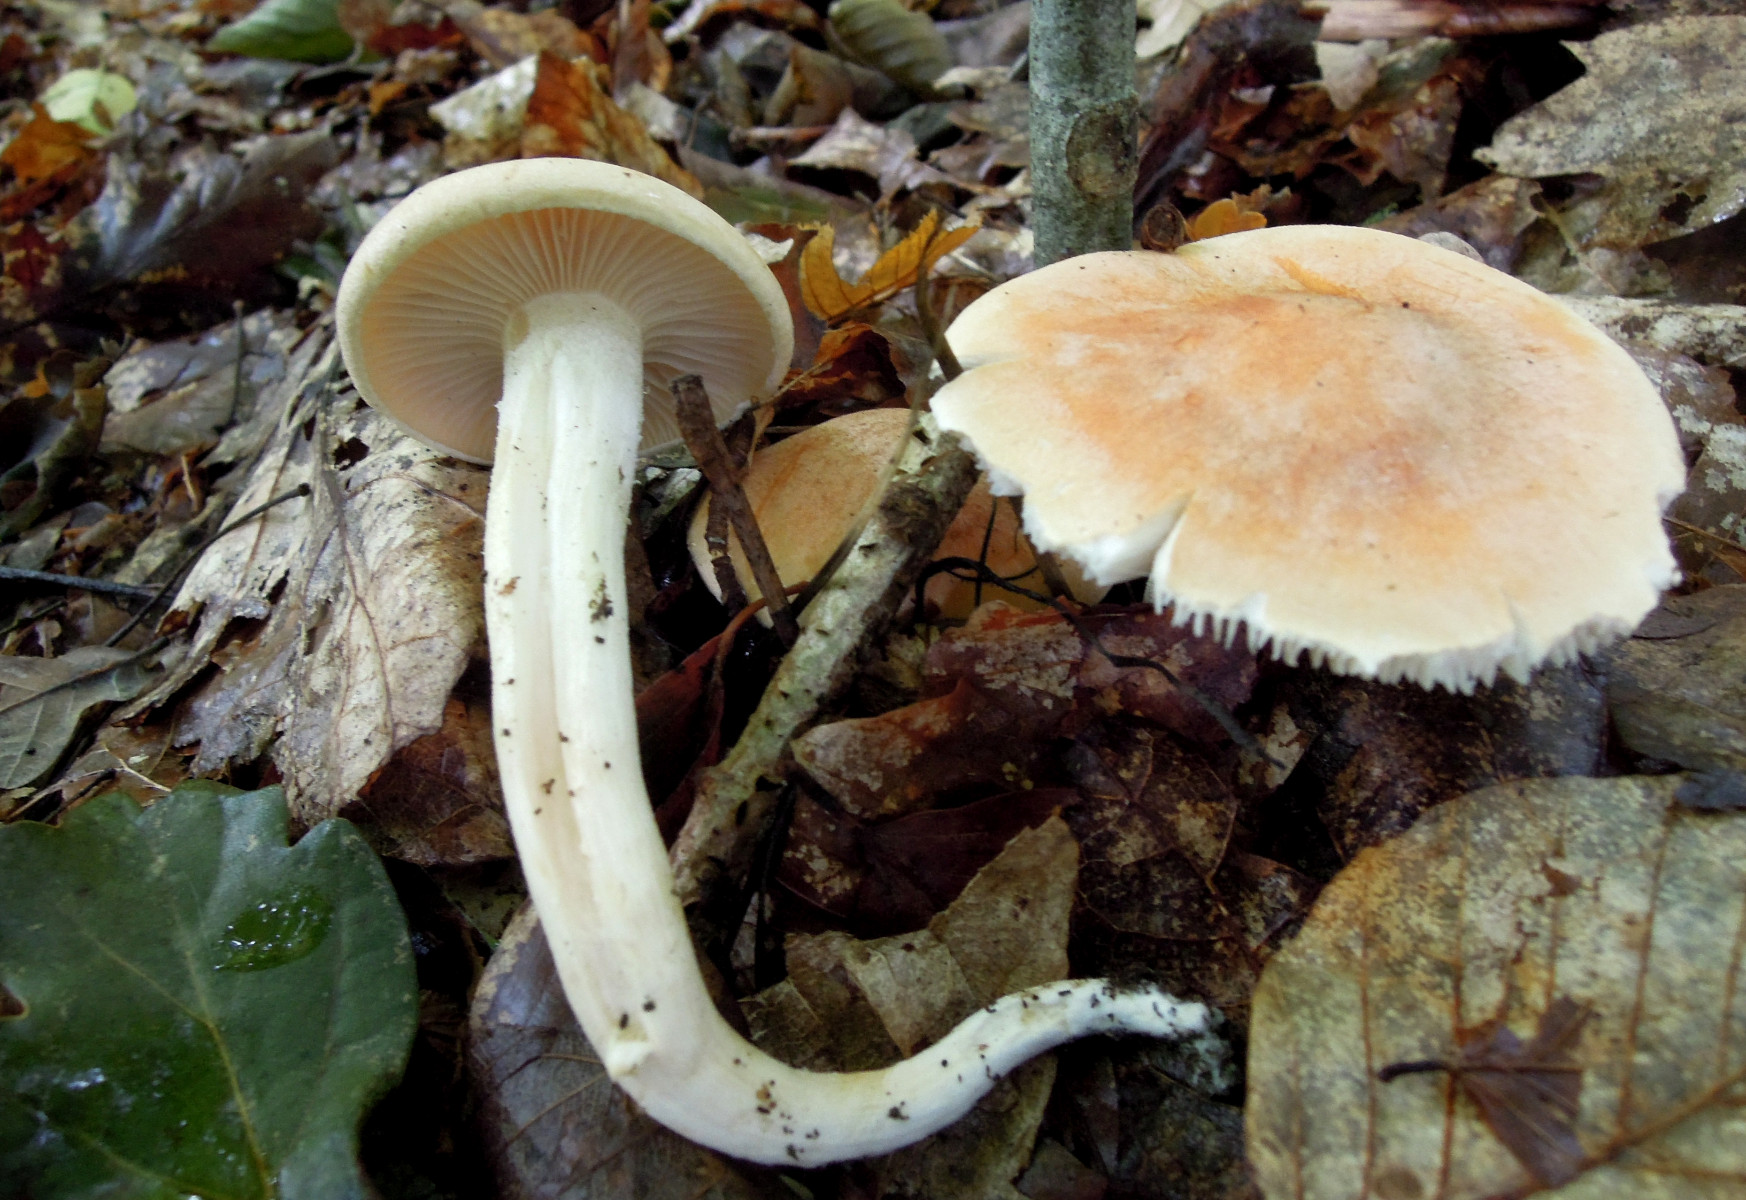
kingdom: Fungi
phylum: Basidiomycota
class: Agaricomycetes
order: Agaricales
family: Hygrophoraceae
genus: Hygrophorus
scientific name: Hygrophorus nemoreus
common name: lund-sneglehat
